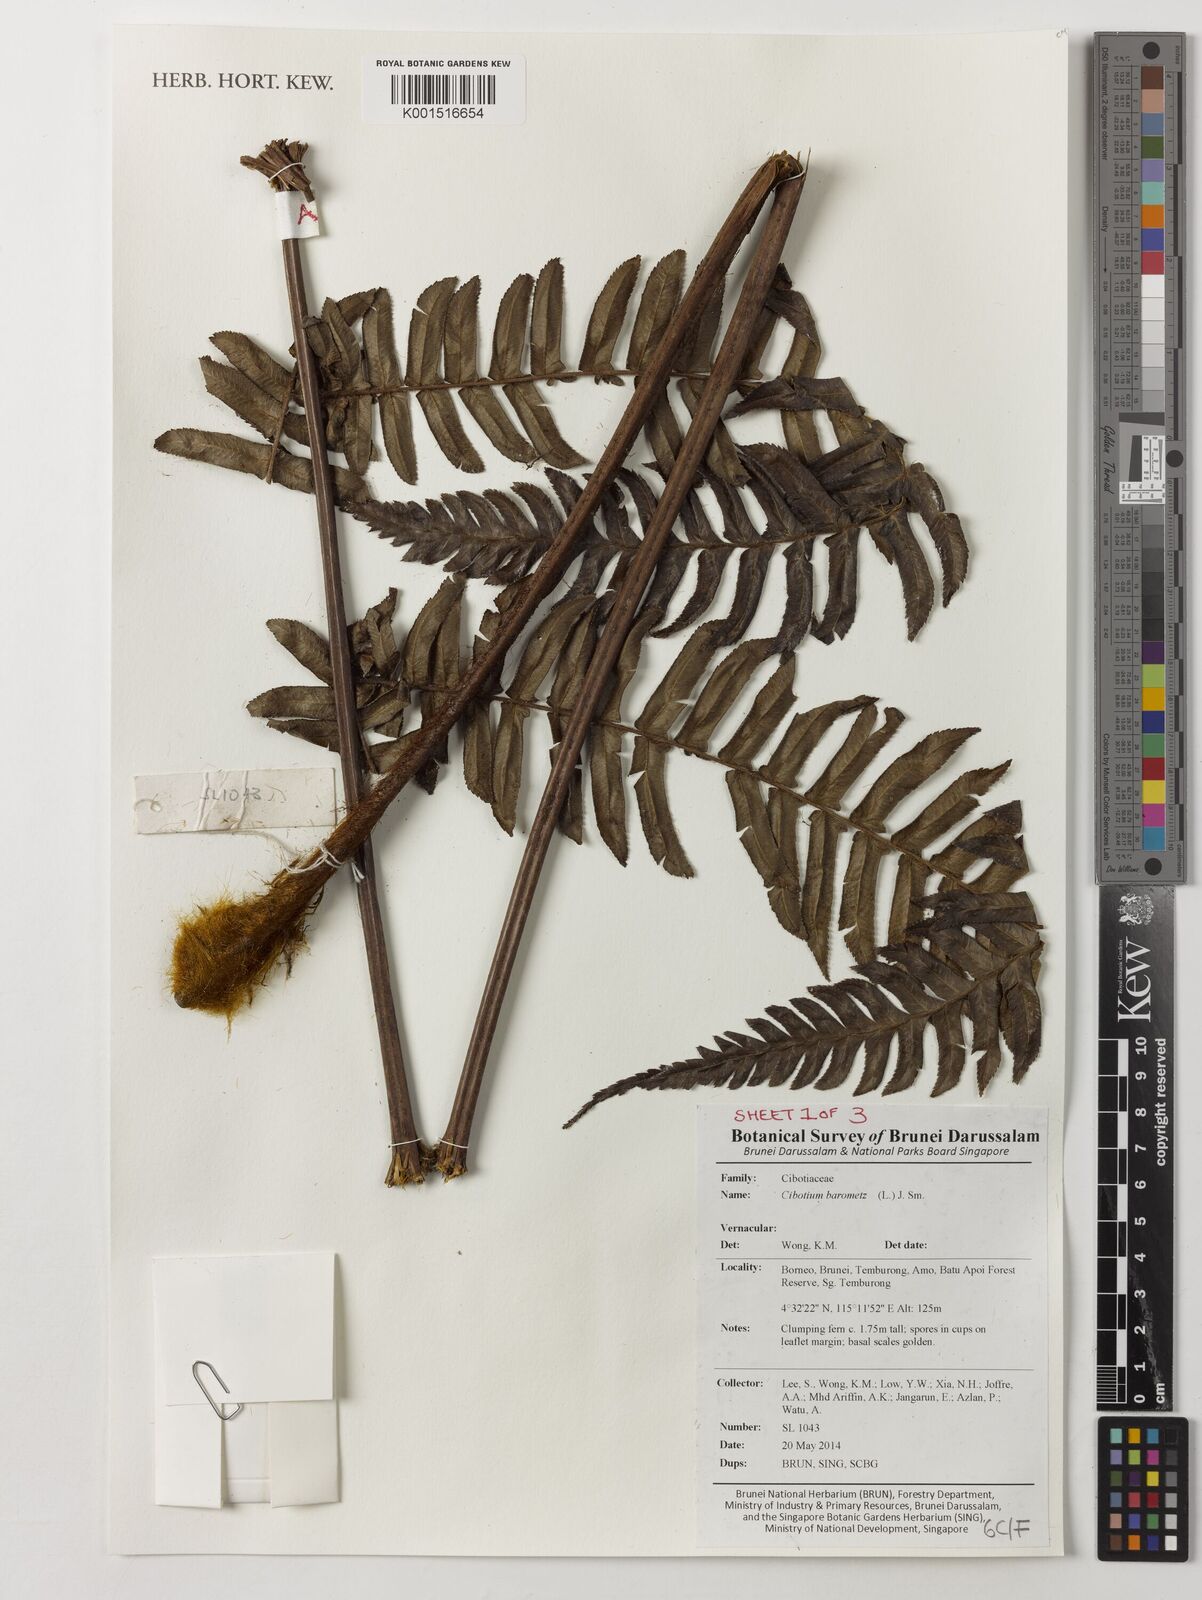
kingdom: Plantae
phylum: Tracheophyta
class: Polypodiopsida
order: Cyatheales
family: Cibotiaceae
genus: Cibotium
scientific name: Cibotium barometz
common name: Scythian-lamb
